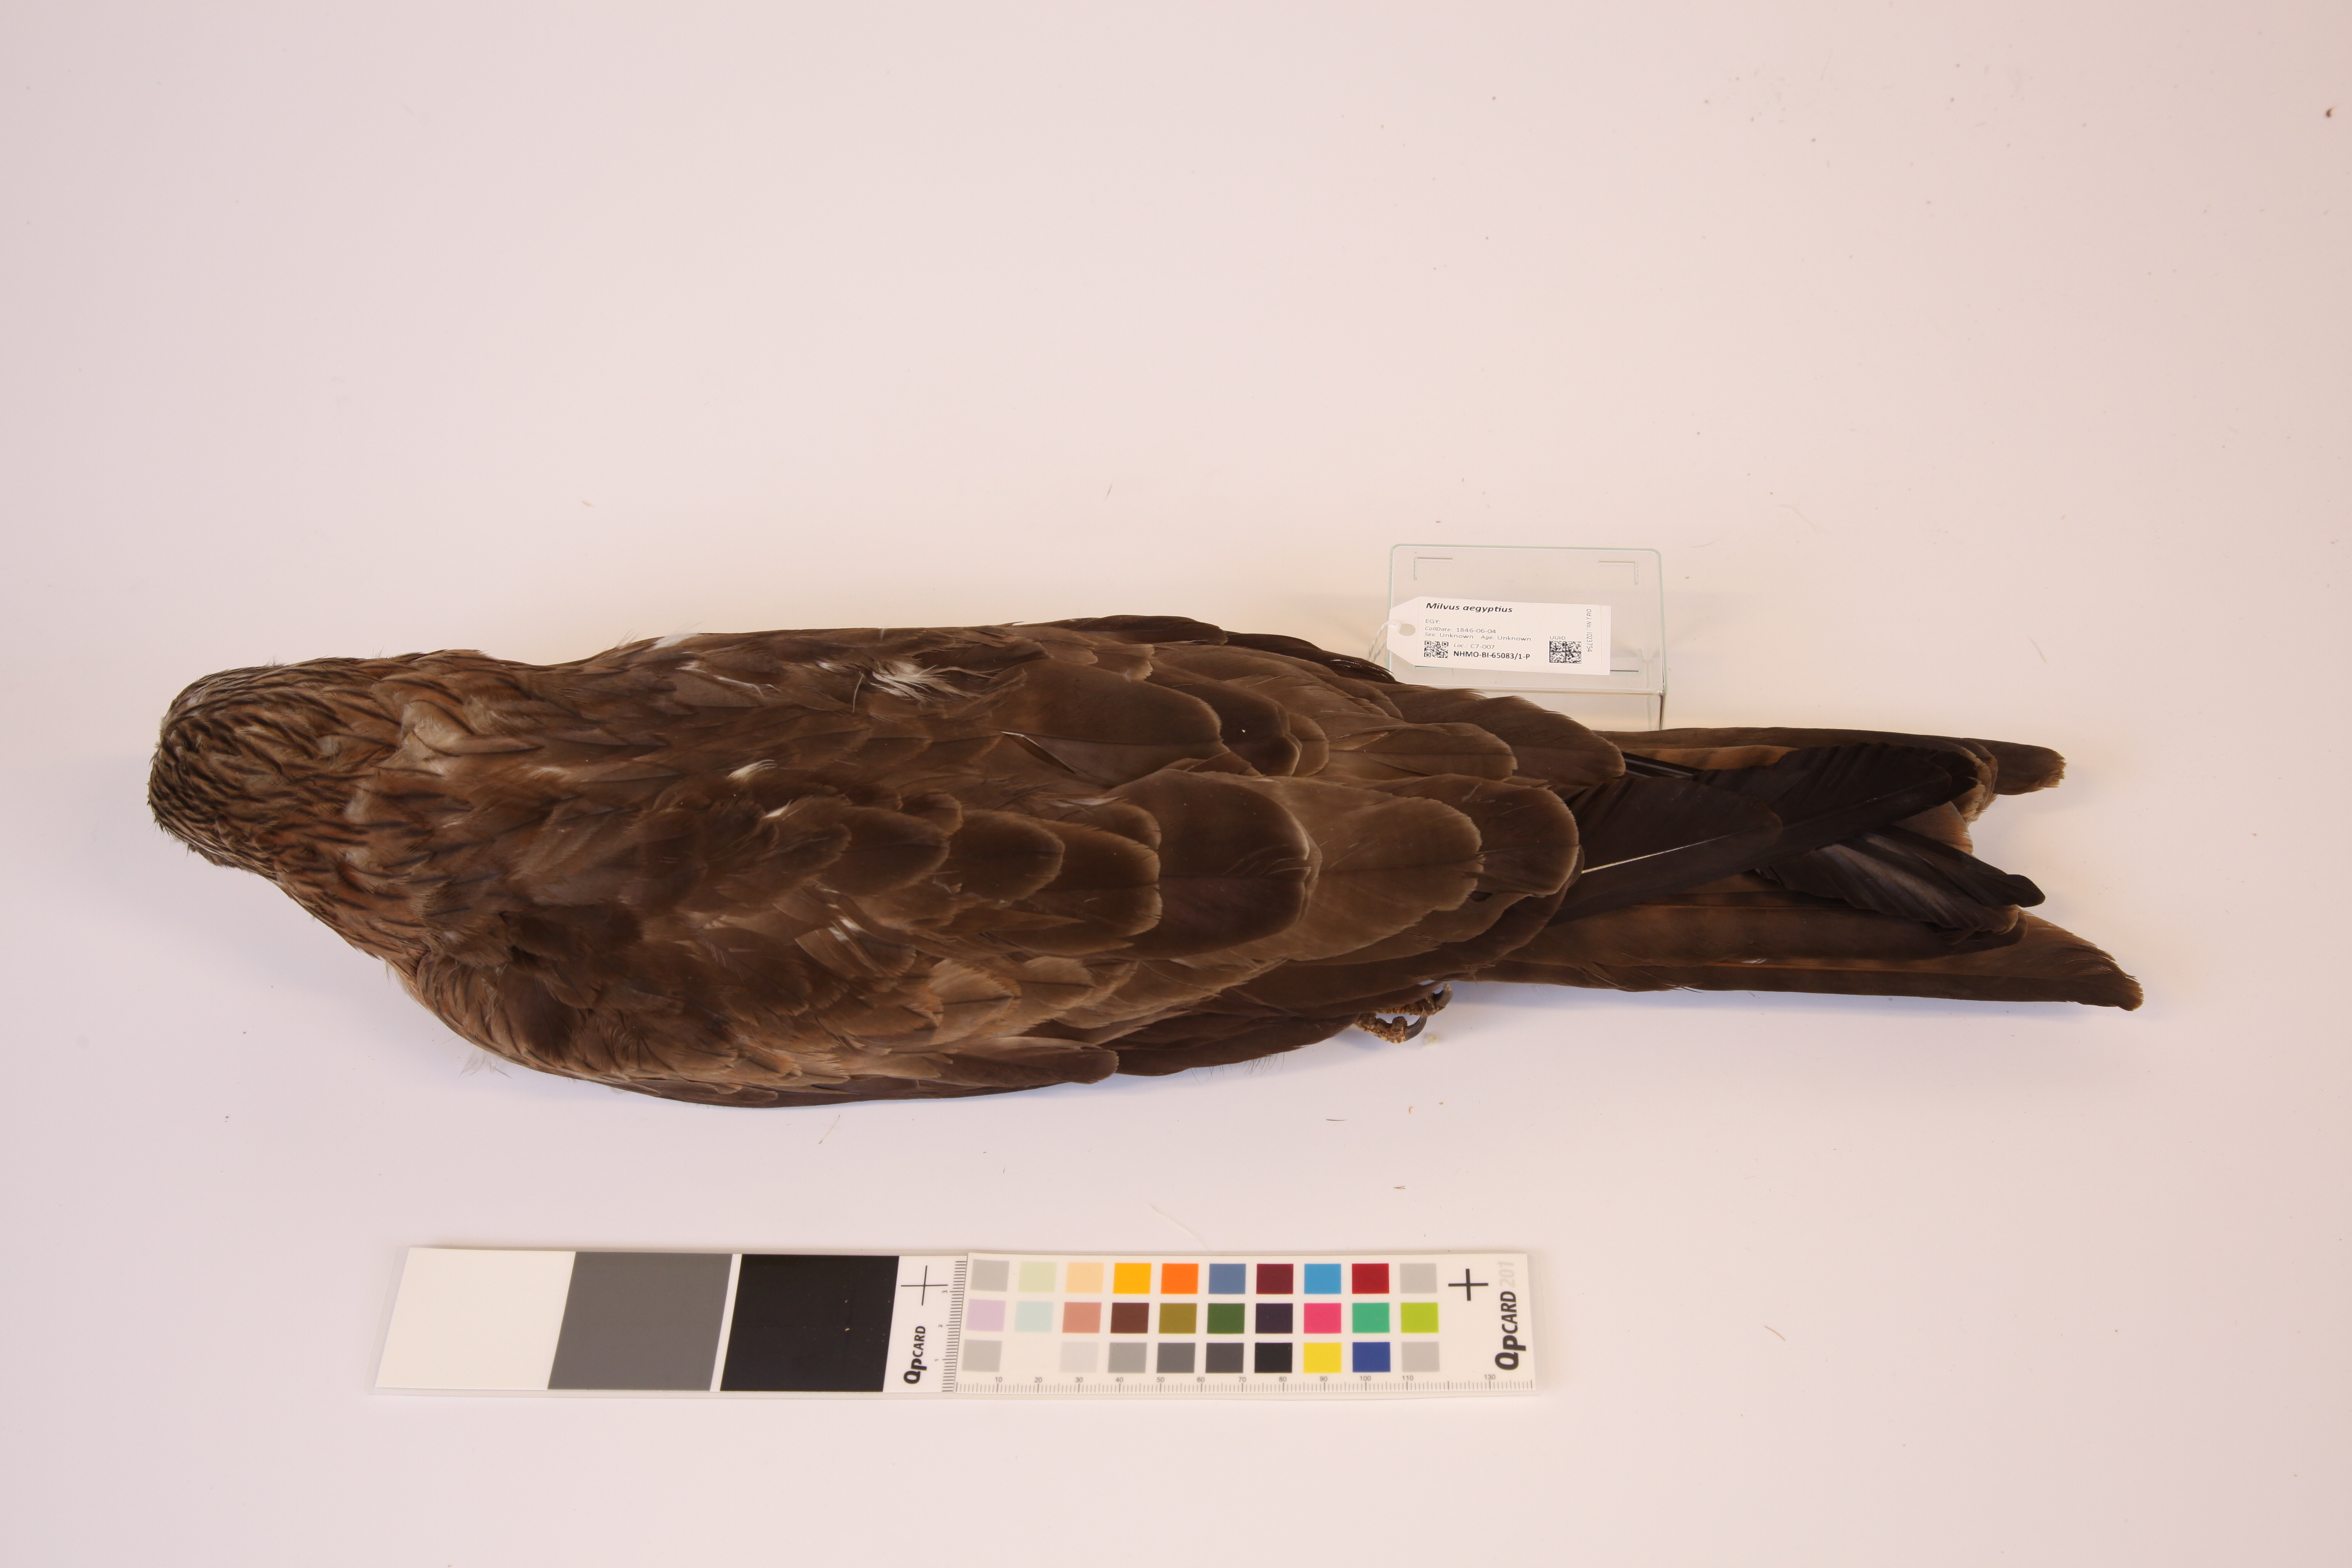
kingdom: Animalia
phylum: Chordata
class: Aves
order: Accipitriformes
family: Accipitridae
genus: Milvus
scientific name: Milvus aegyptius
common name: Yellow-billed kite
